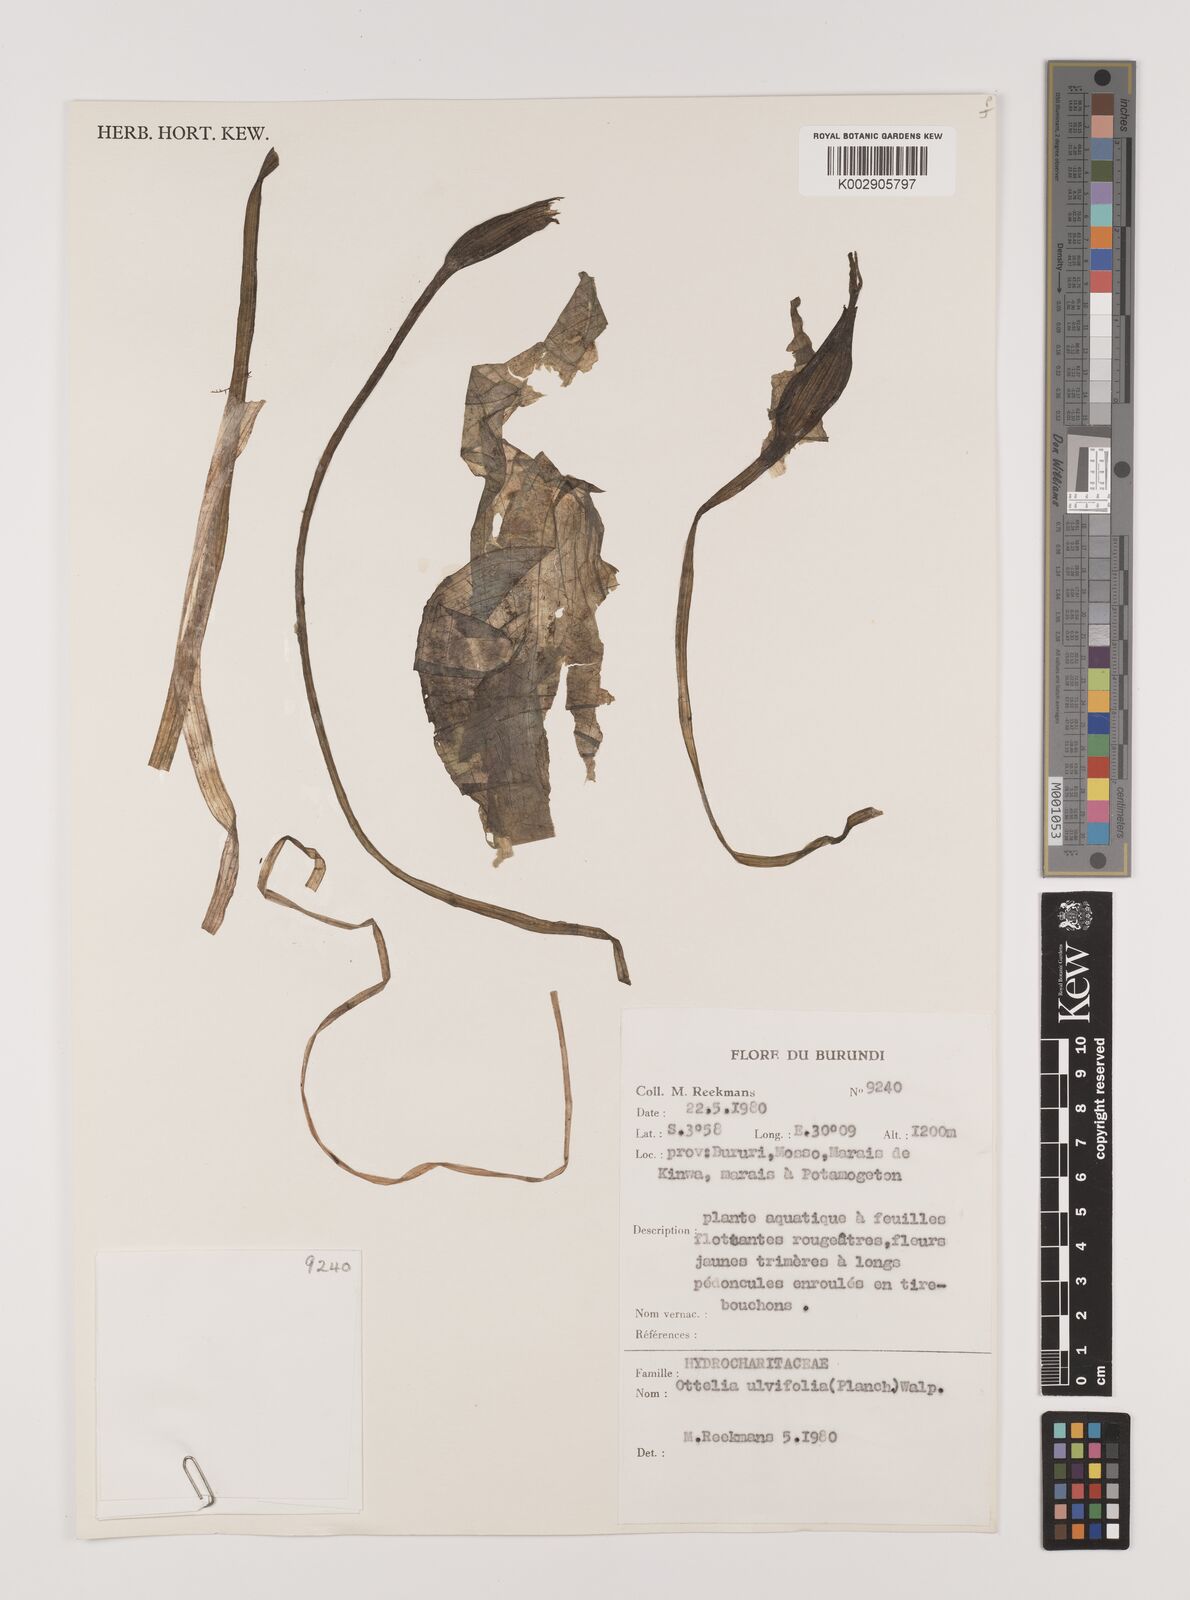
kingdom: Plantae
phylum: Tracheophyta
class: Liliopsida
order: Alismatales
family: Hydrocharitaceae
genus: Ottelia
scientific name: Ottelia ulvifolia
